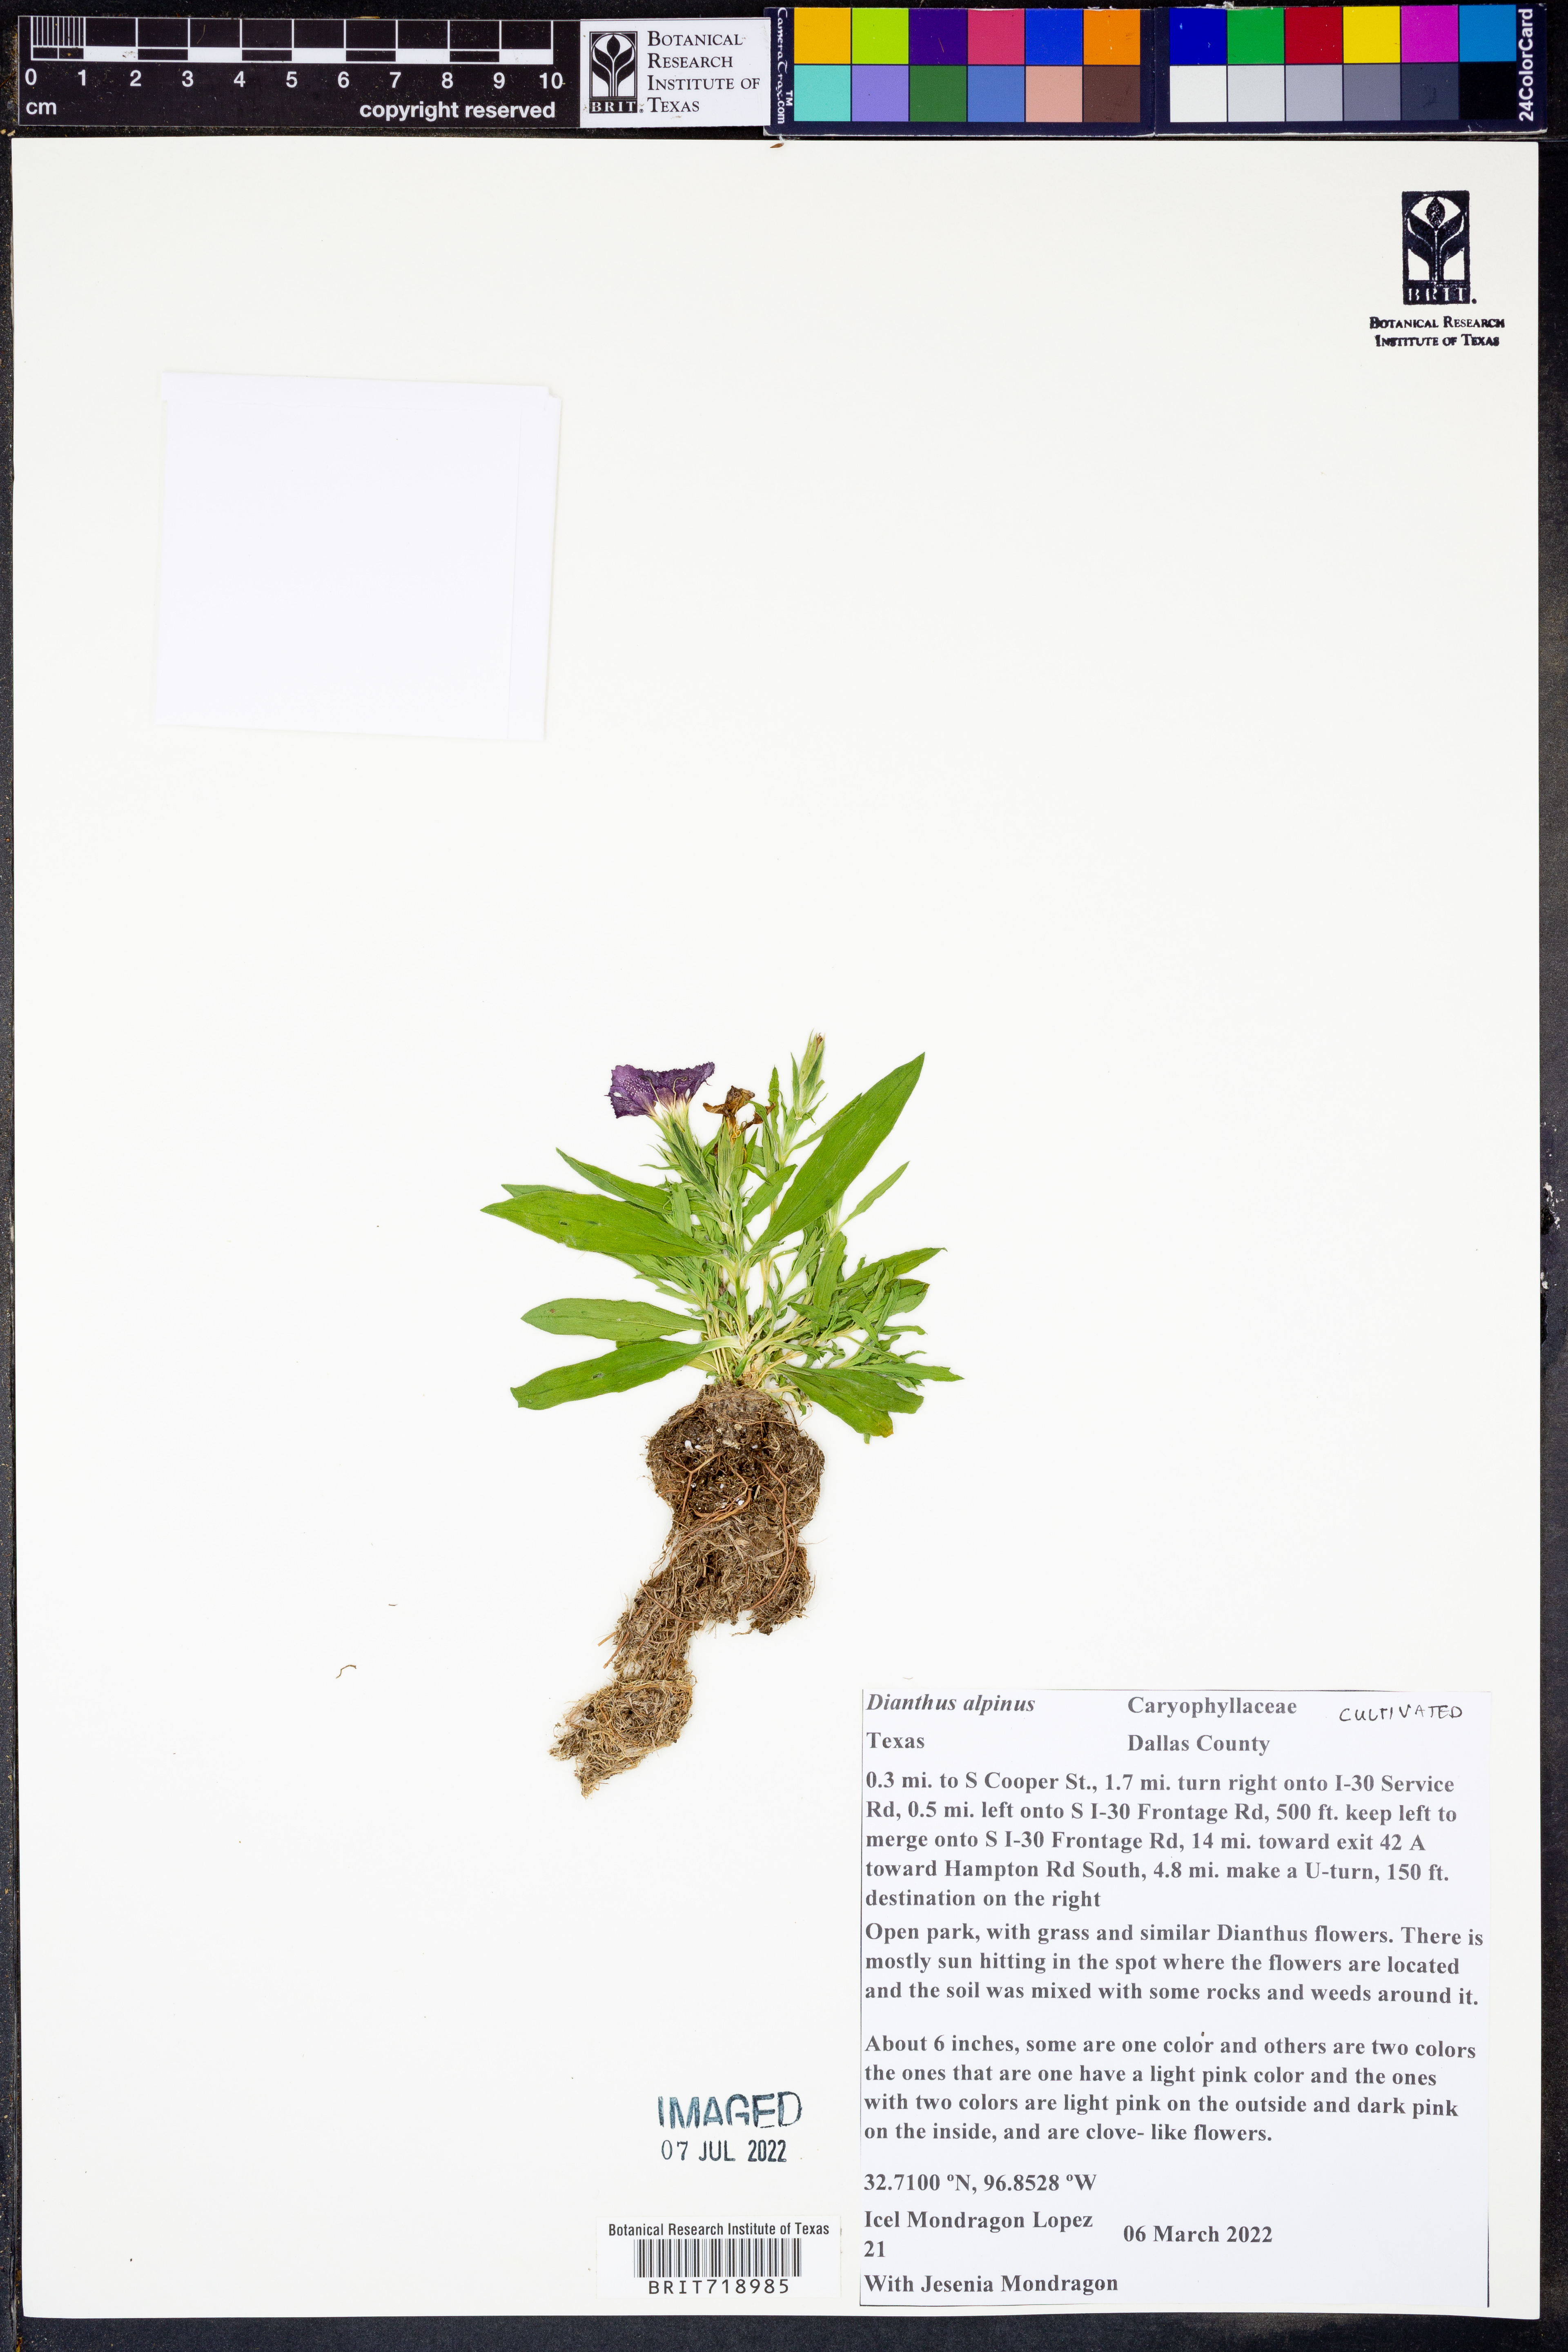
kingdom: Plantae
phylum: Tracheophyta
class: Magnoliopsida
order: Caryophyllales
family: Caryophyllaceae
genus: Dianthus
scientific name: Dianthus alpinus
